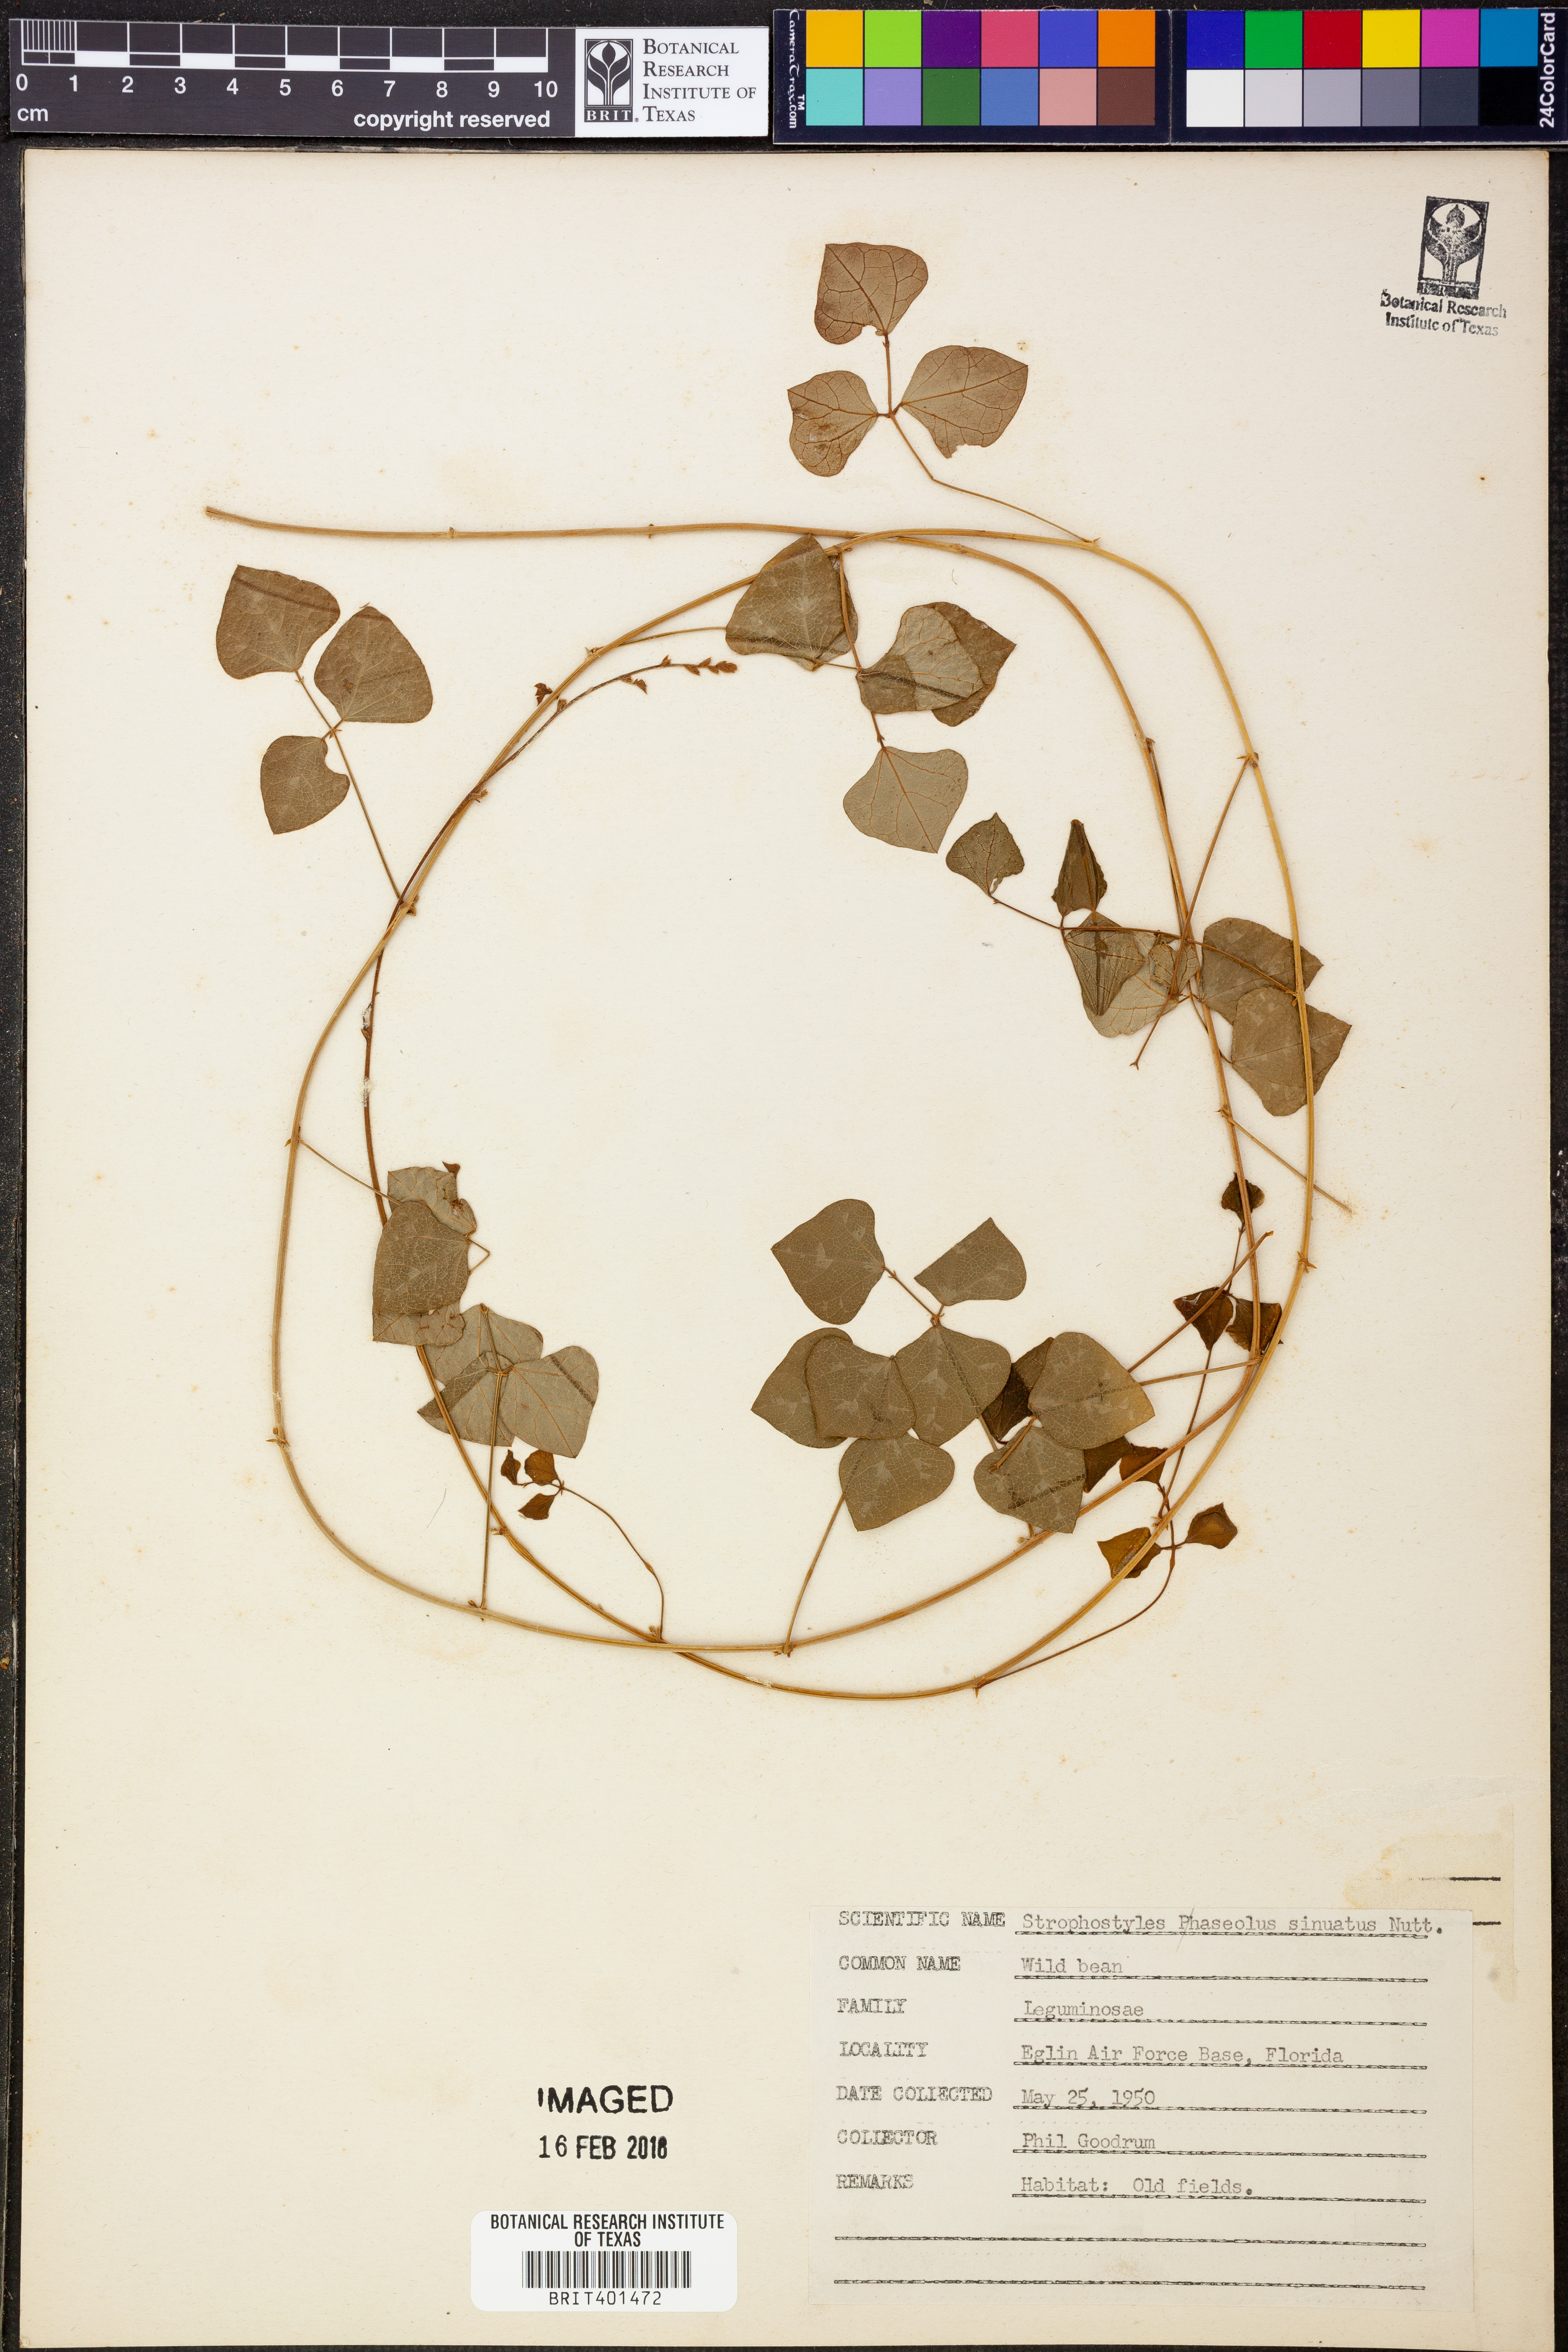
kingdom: Plantae
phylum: Tracheophyta
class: Magnoliopsida
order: Fabales
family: Fabaceae
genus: Strophostyles
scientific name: Strophostyles
